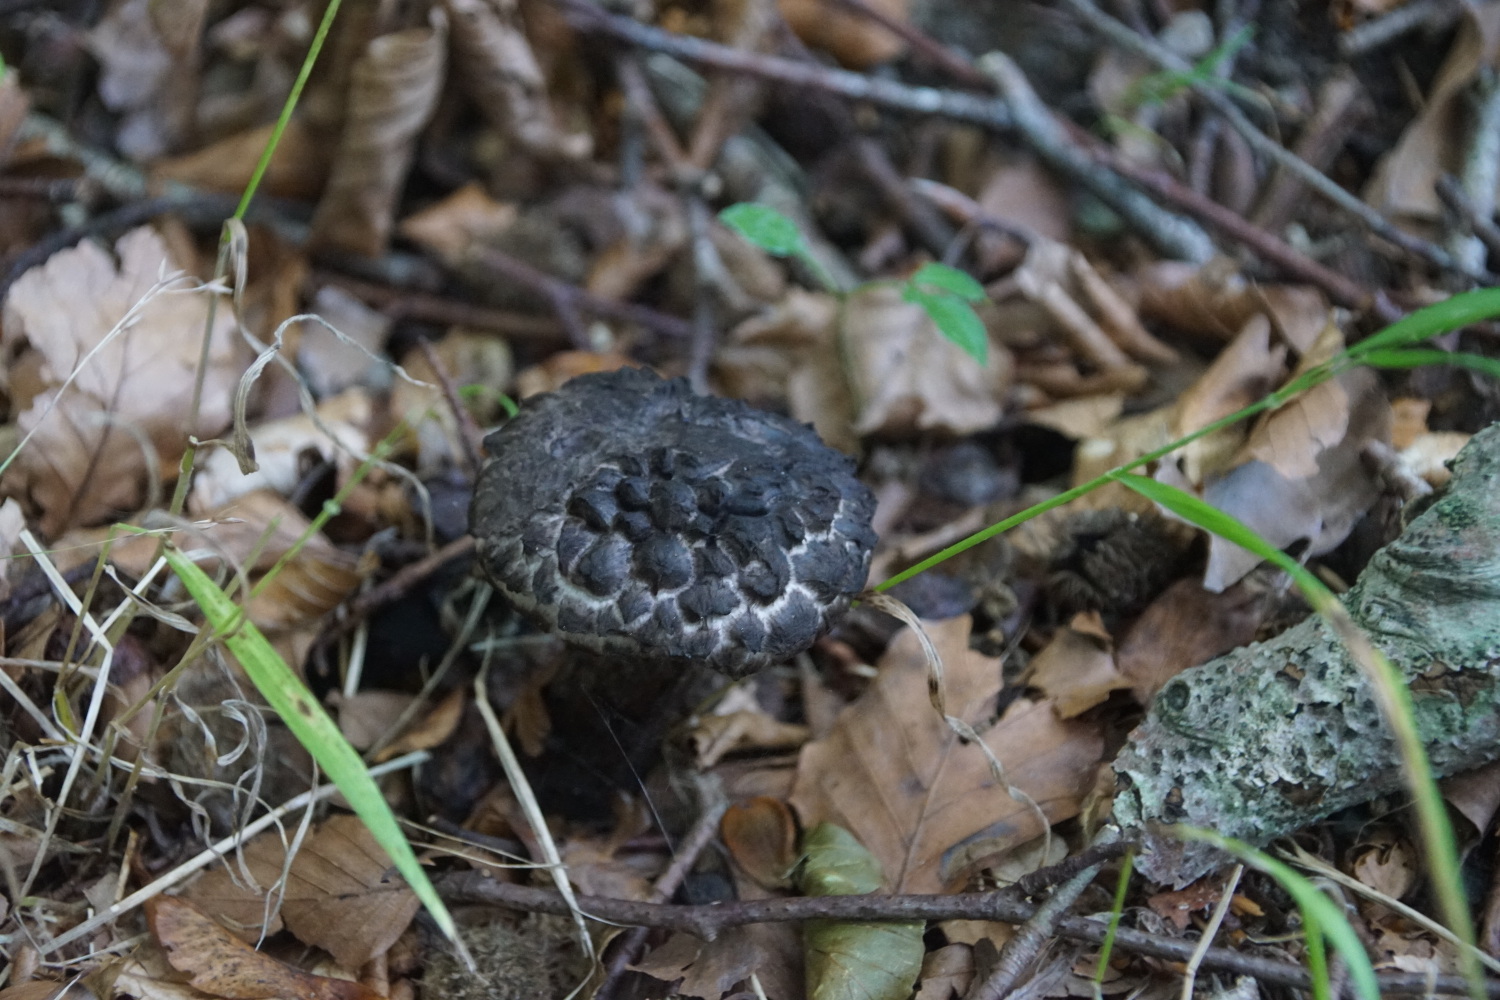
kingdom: Fungi
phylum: Basidiomycota
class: Agaricomycetes
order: Boletales
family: Boletaceae
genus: Strobilomyces
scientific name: Strobilomyces strobilaceus
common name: koglerørhat
